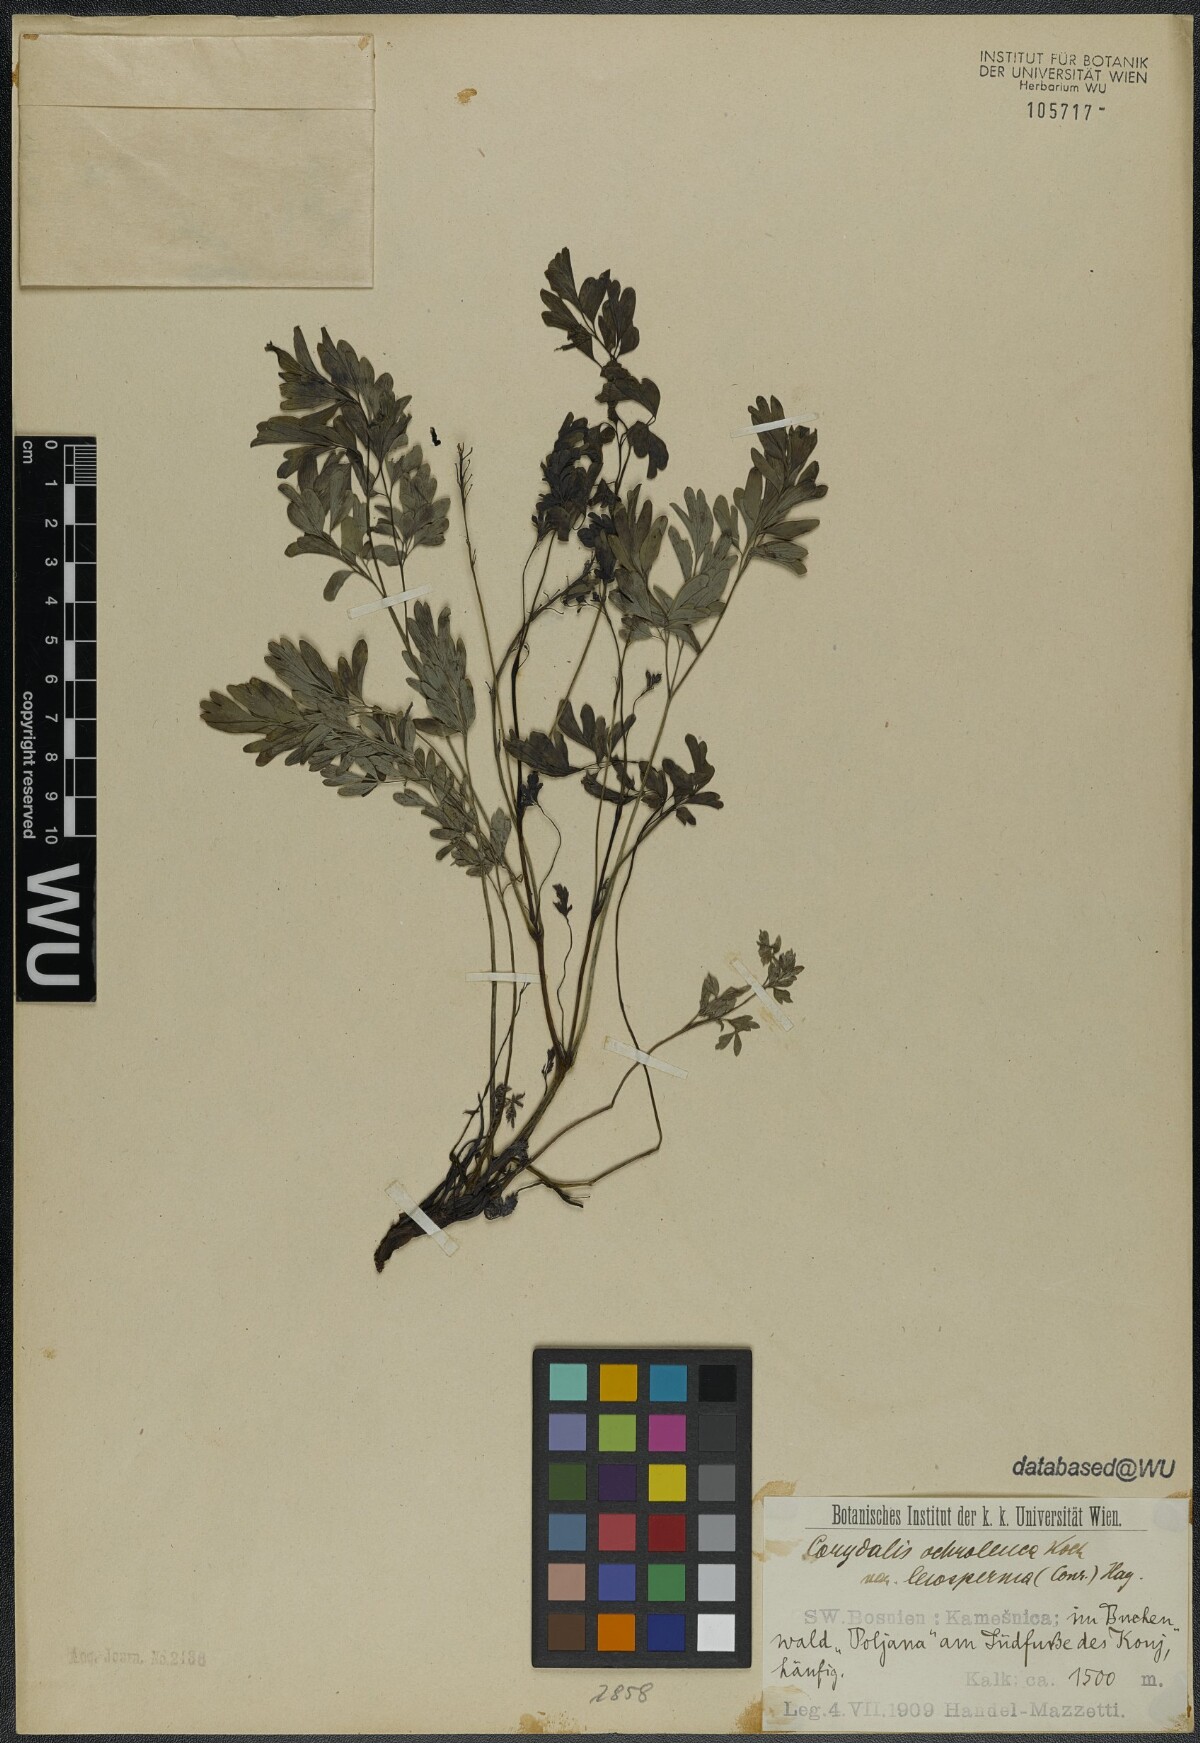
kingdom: Plantae
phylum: Tracheophyta
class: Magnoliopsida
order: Ranunculales
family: Papaveraceae
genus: Pseudofumaria
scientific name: Pseudofumaria alba
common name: Pale corydalis
